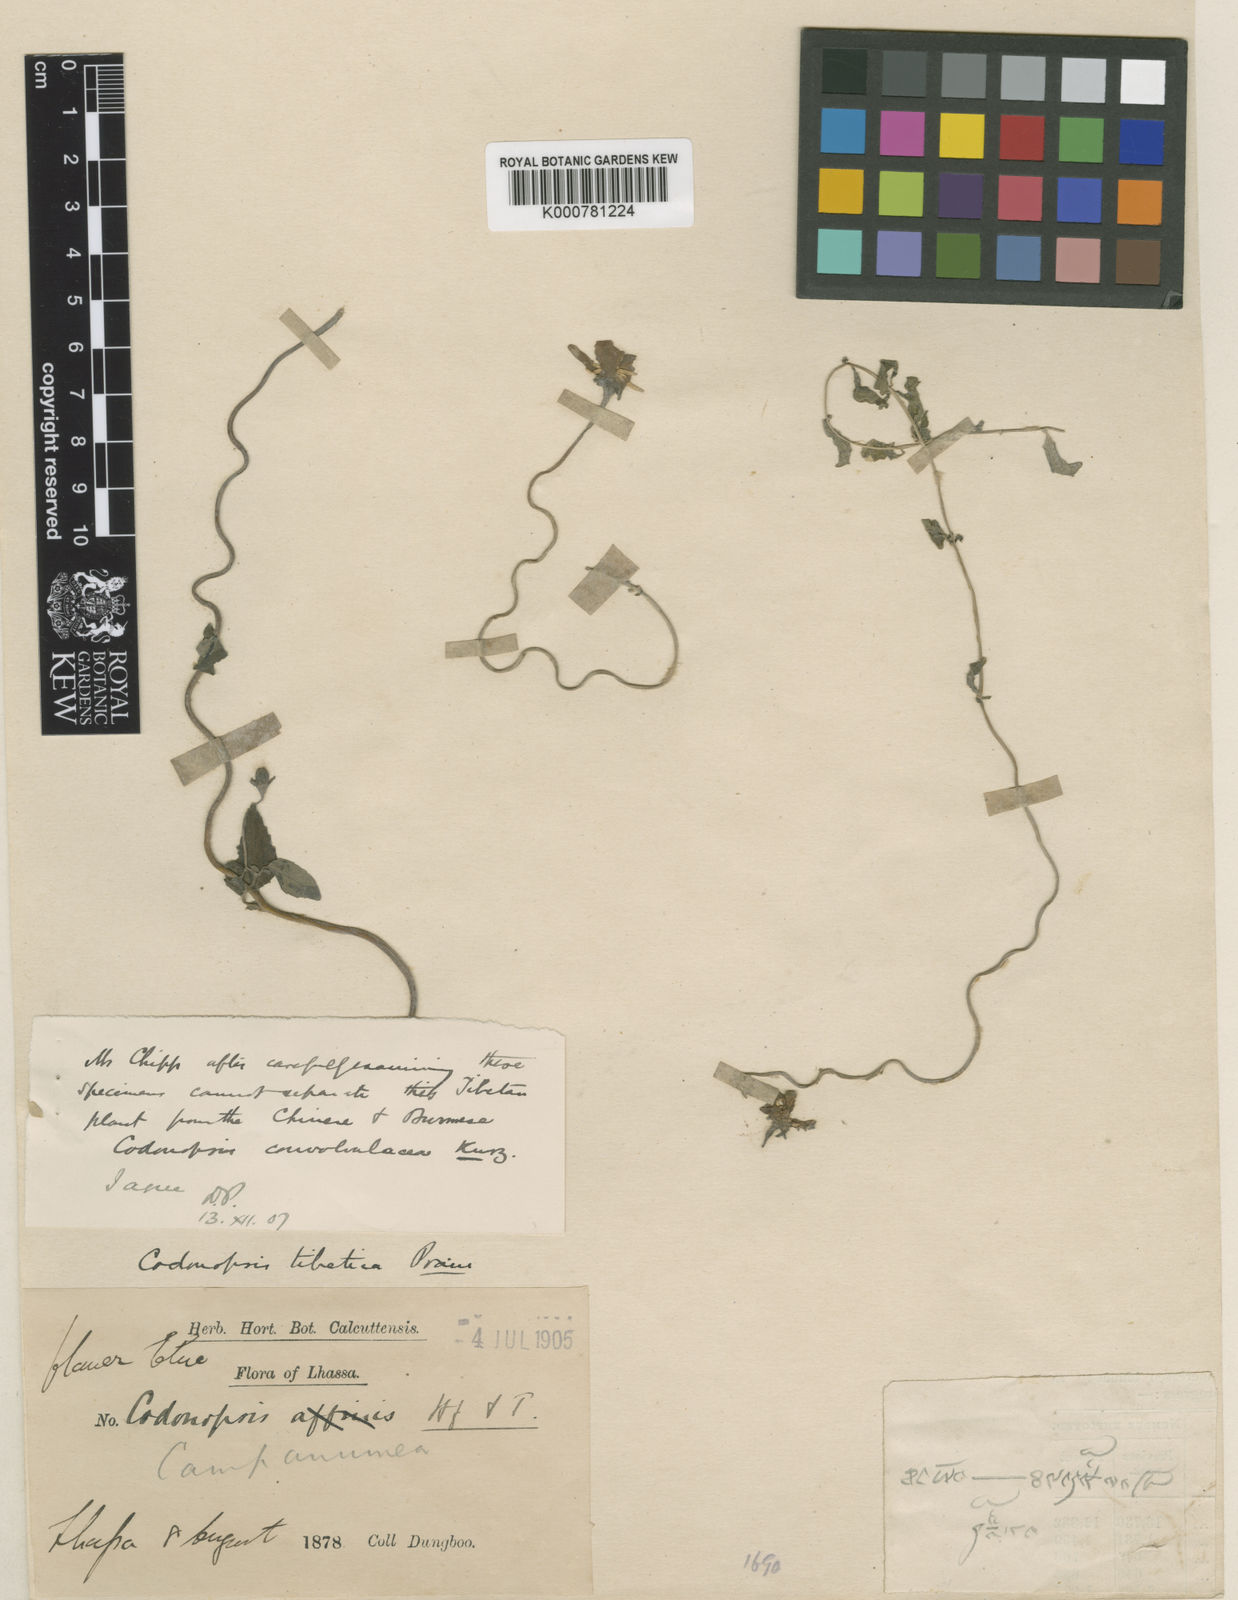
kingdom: Plantae
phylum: Tracheophyta
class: Magnoliopsida
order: Asterales
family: Campanulaceae
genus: Pseudocodon
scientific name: Pseudocodon vinciflorus
